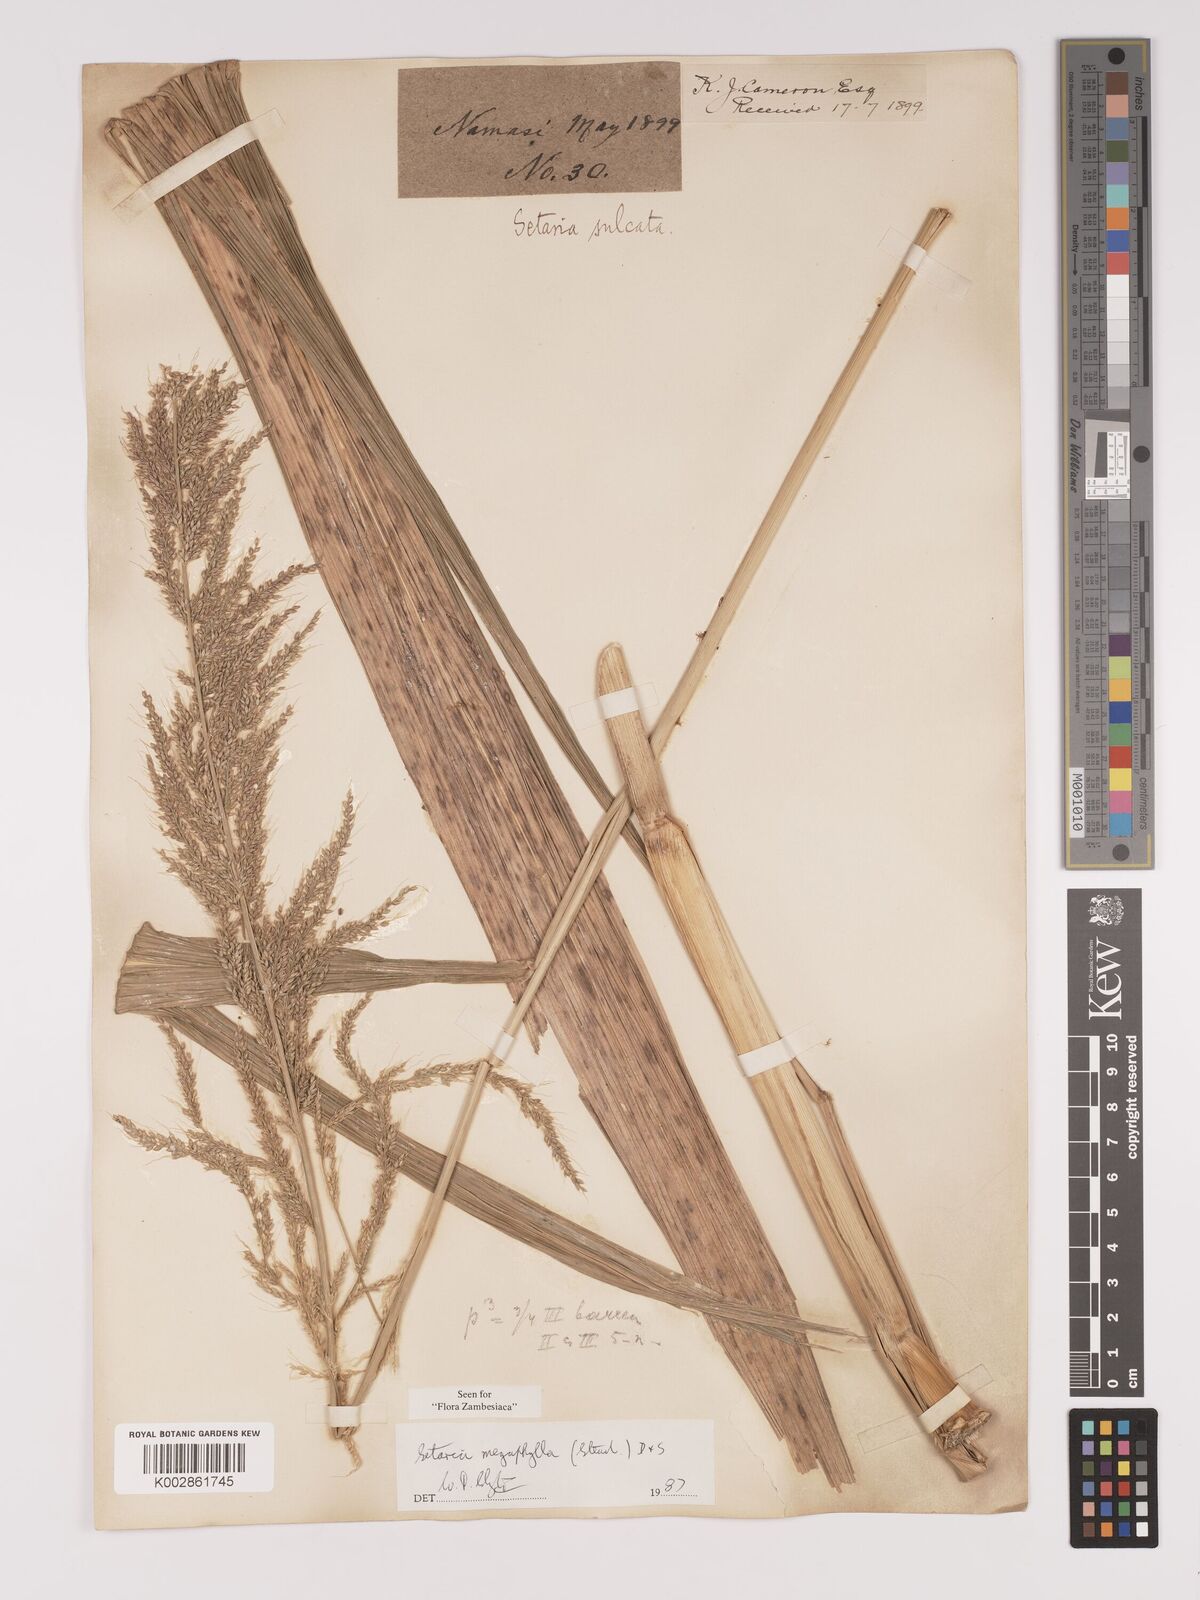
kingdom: Plantae
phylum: Tracheophyta
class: Liliopsida
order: Poales
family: Poaceae
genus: Setaria
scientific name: Setaria megaphylla
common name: Bigleaf bristlegrass
